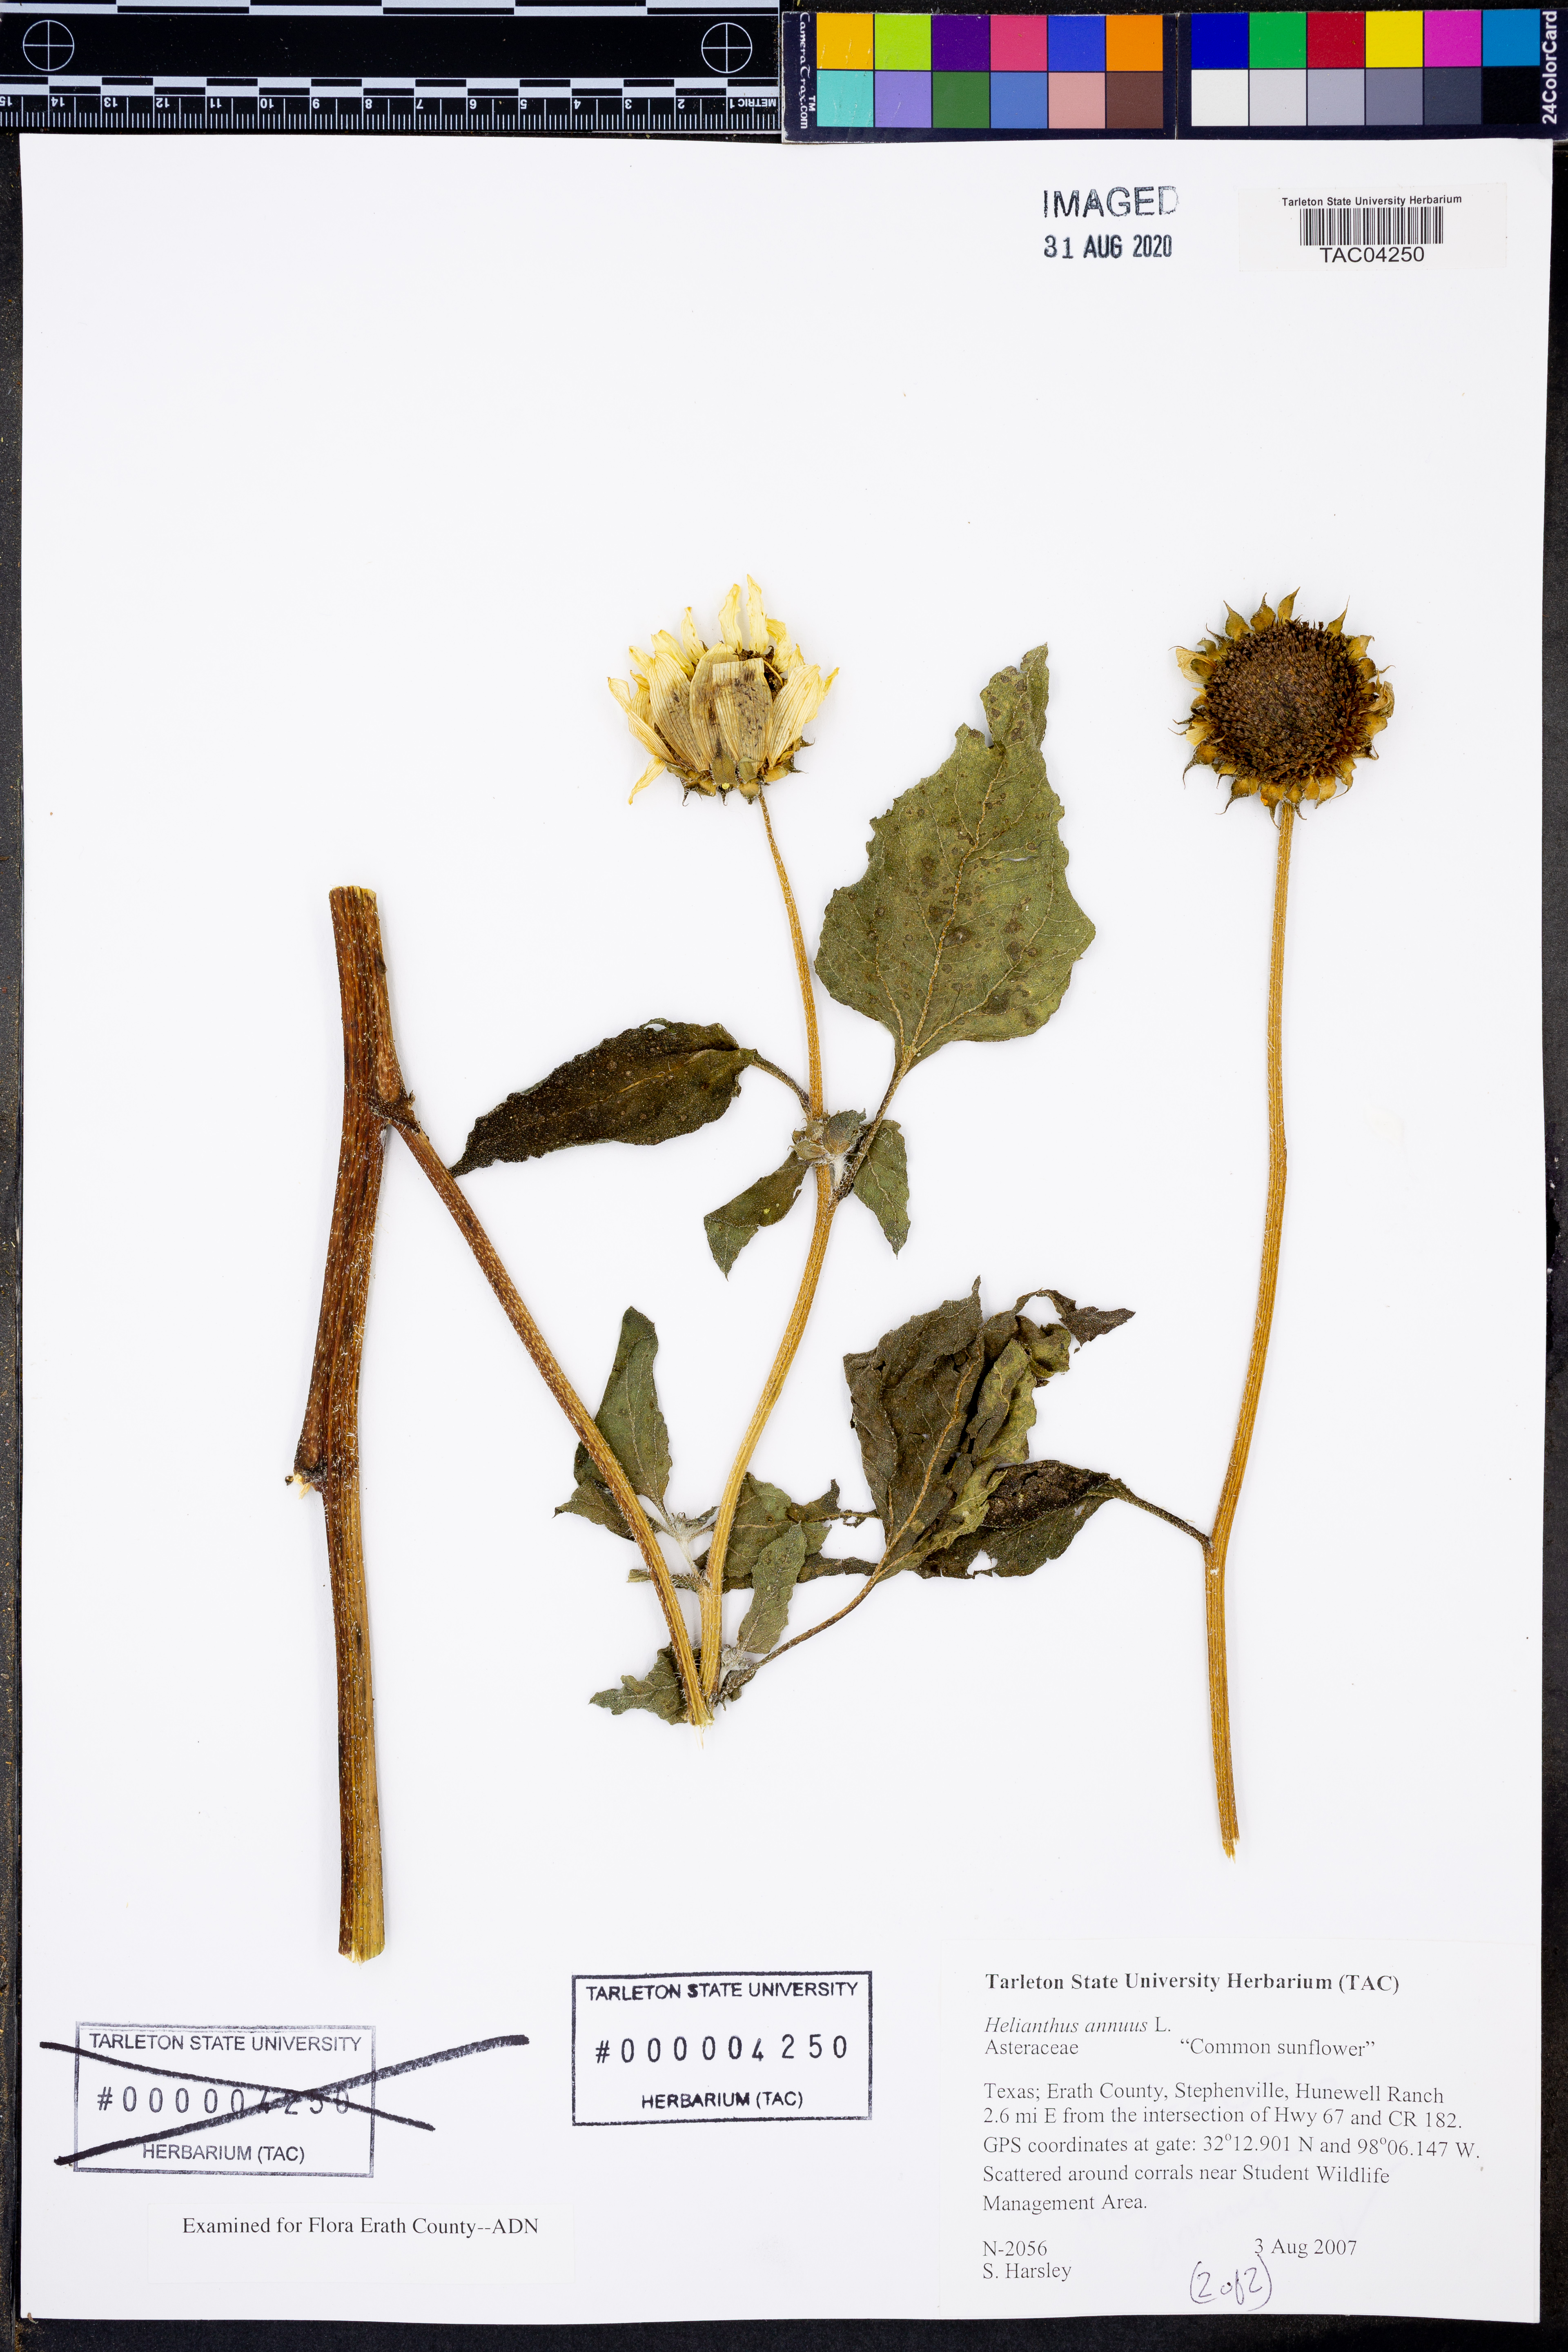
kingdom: Plantae
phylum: Tracheophyta
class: Magnoliopsida
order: Asterales
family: Asteraceae
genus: Helianthus
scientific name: Helianthus annuus
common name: Sunflower
